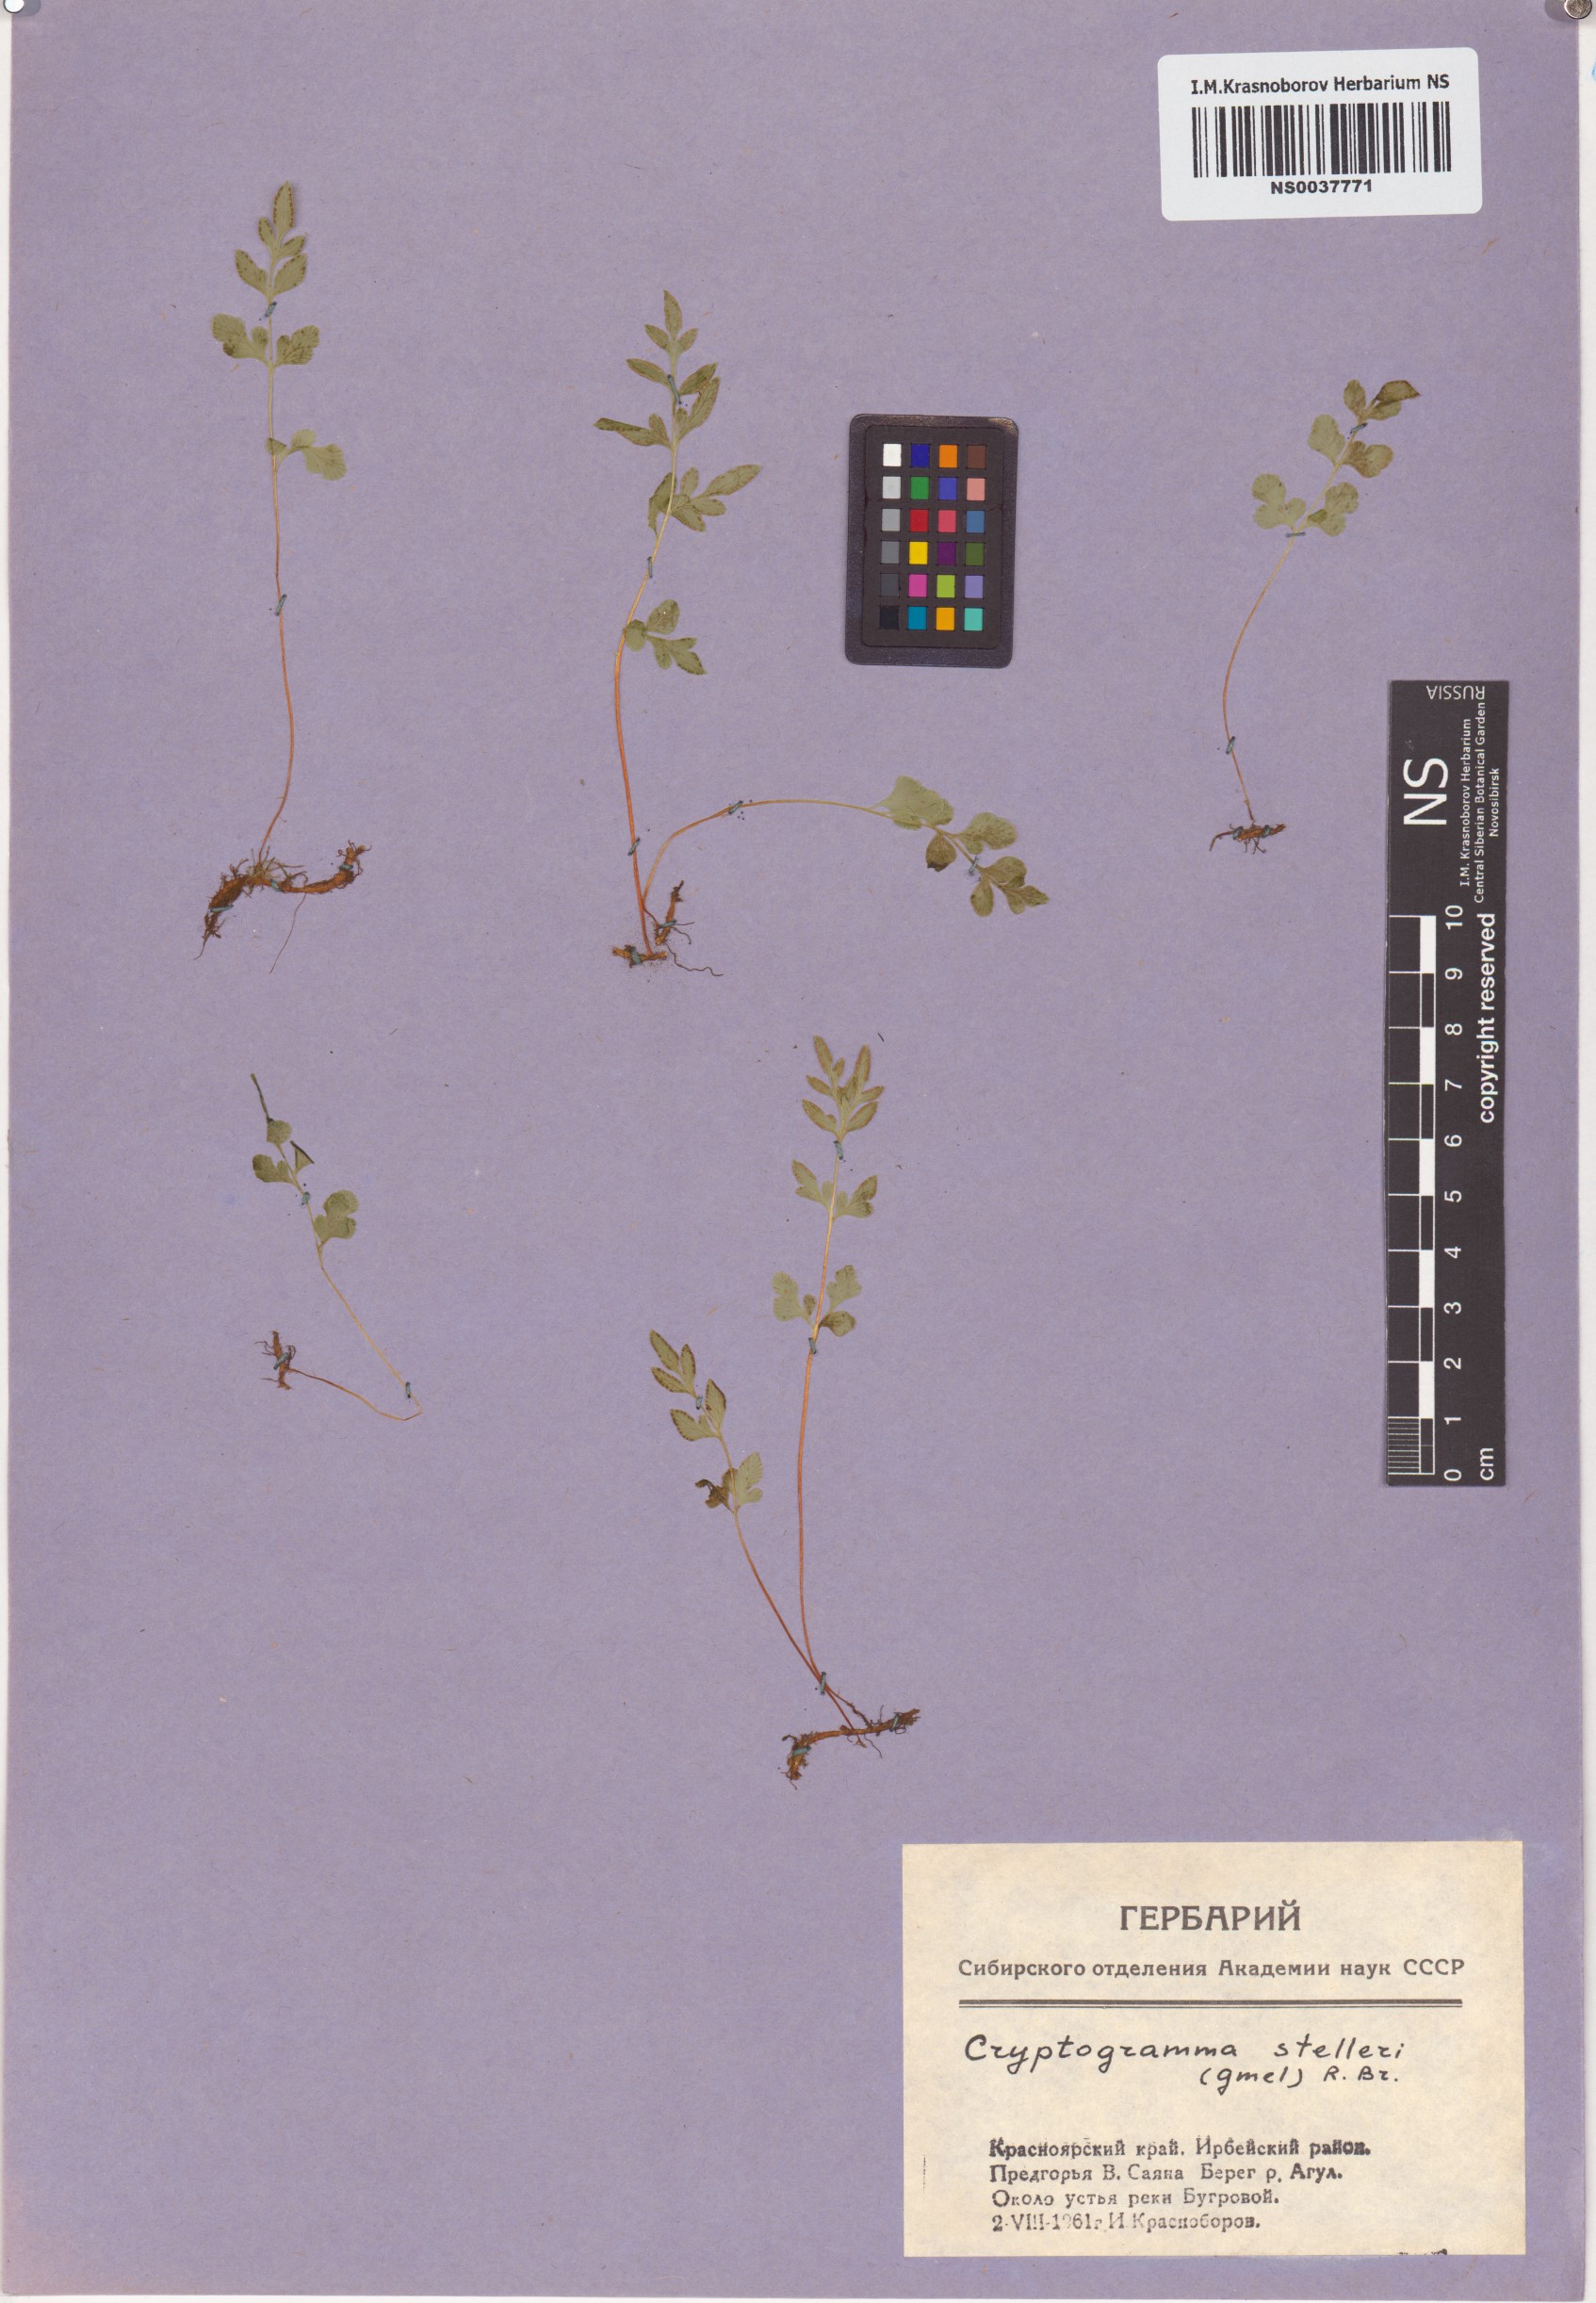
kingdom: Plantae
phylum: Tracheophyta
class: Polypodiopsida
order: Polypodiales
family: Pteridaceae
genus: Cryptogramma
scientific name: Cryptogramma stelleri
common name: Cliff-brake
